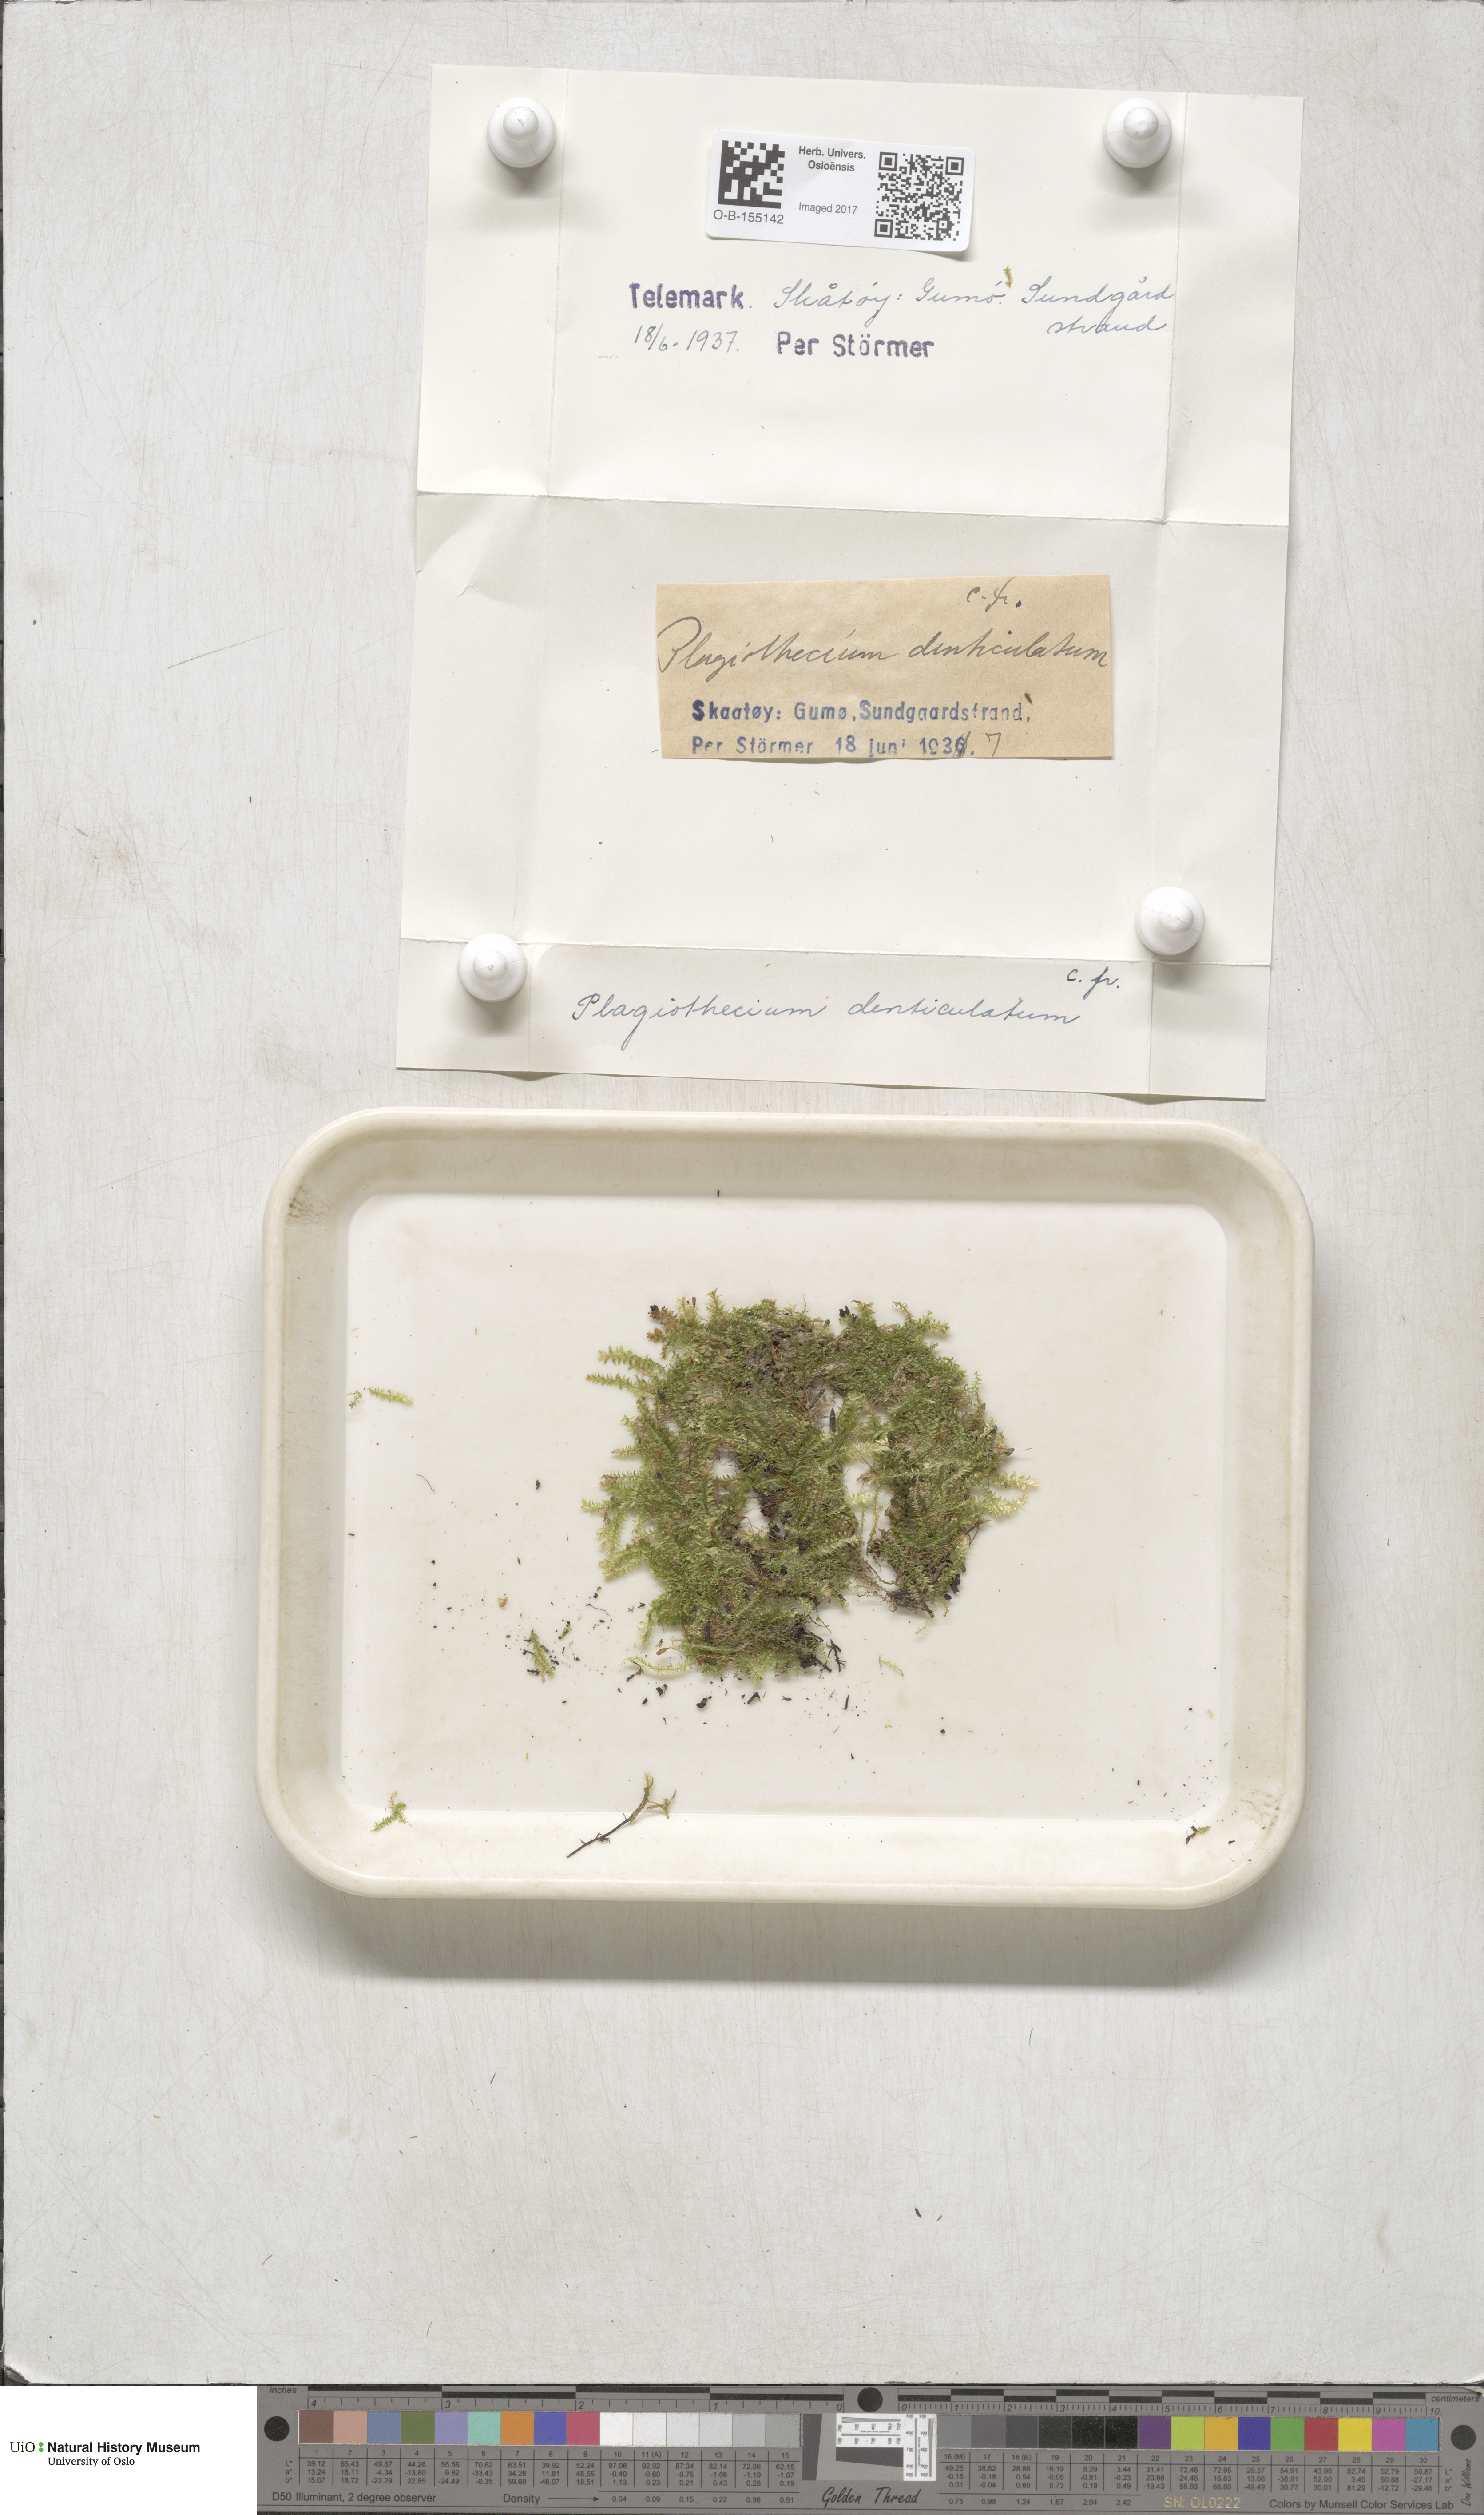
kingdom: Plantae
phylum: Bryophyta
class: Bryopsida
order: Hypnales
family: Plagiotheciaceae
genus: Plagiothecium
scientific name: Plagiothecium denticulatum
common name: Dented silk moss
